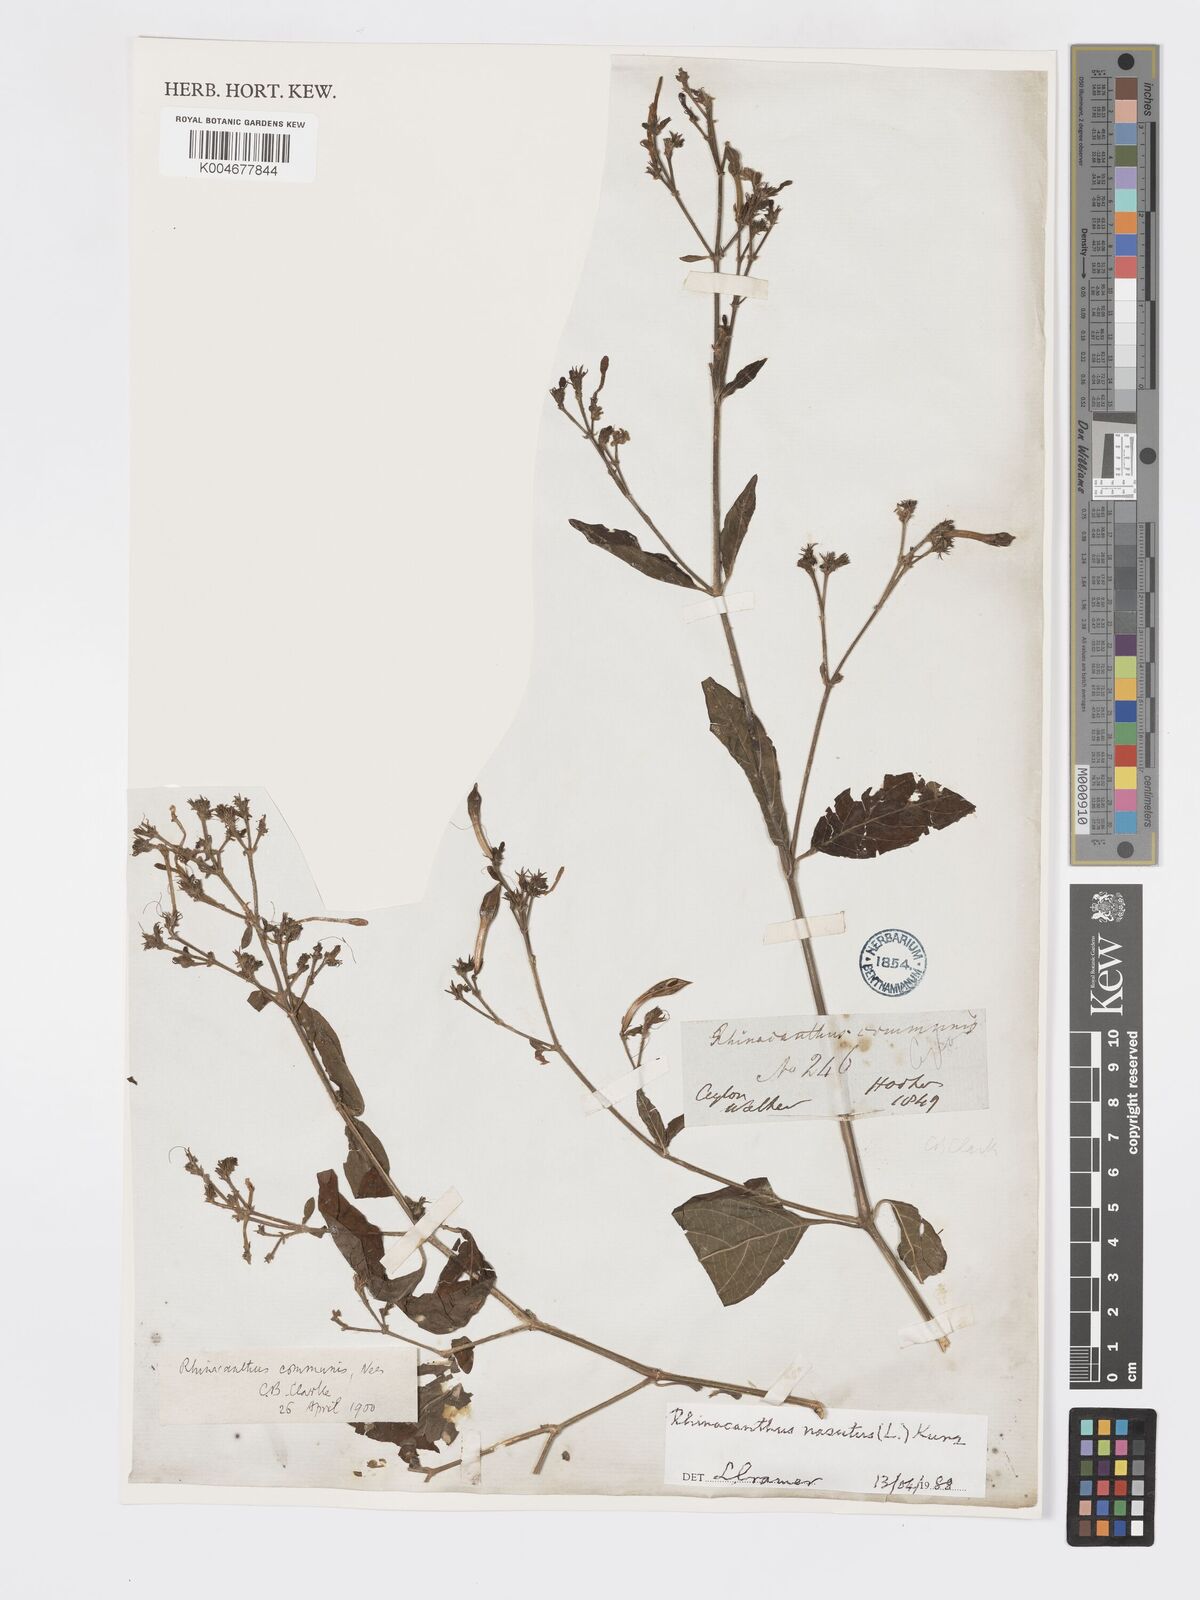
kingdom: Plantae
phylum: Tracheophyta
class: Magnoliopsida
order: Lamiales
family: Acanthaceae
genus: Rhinacanthus
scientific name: Rhinacanthus nasutus
